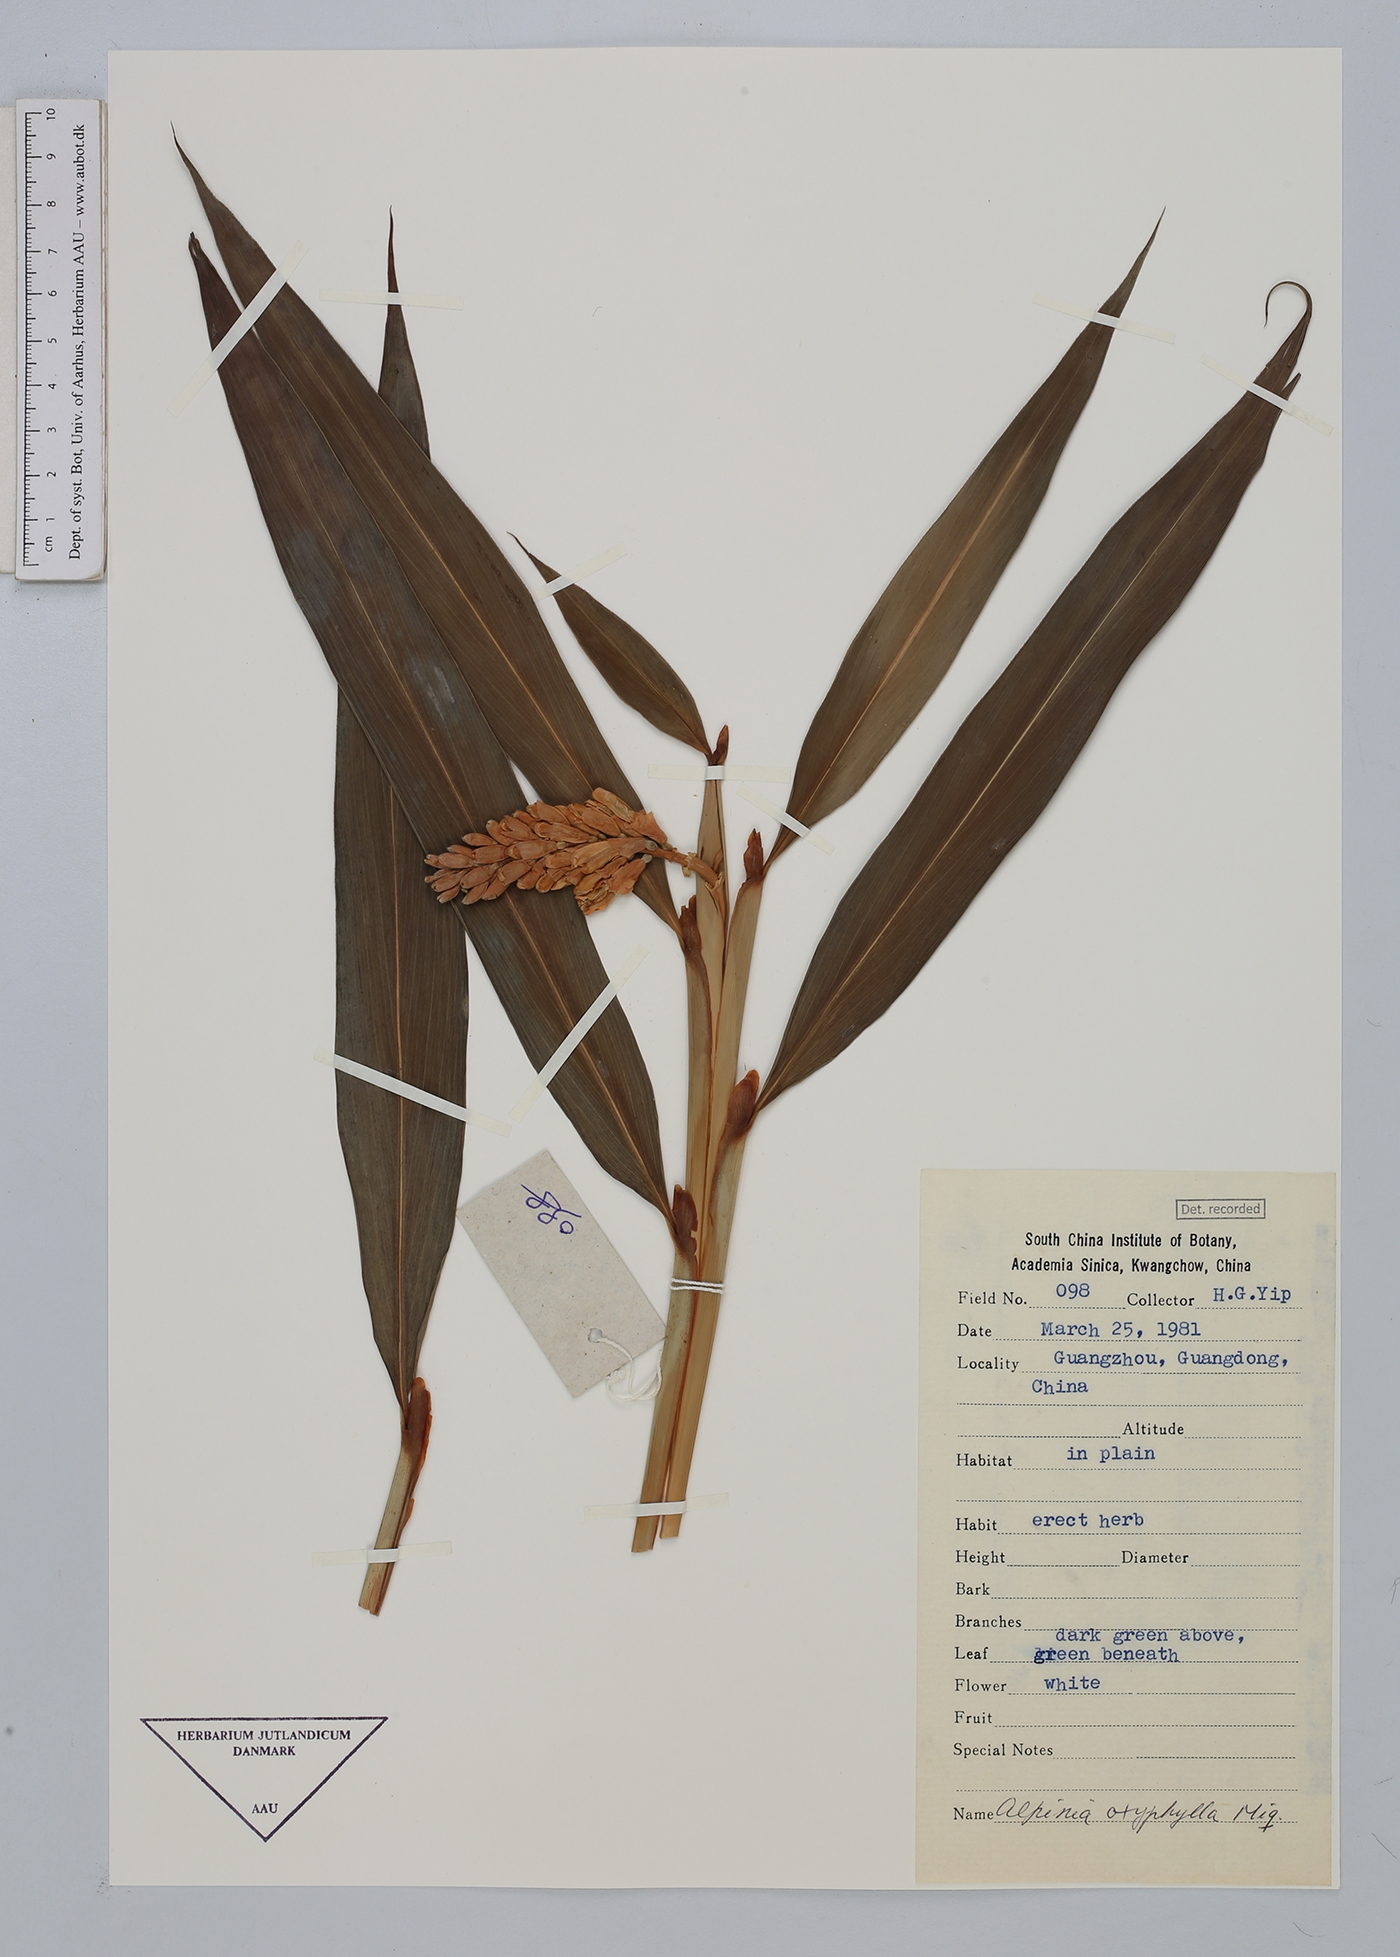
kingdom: Plantae
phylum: Tracheophyta
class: Liliopsida
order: Zingiberales
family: Zingiberaceae
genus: Alpinia
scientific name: Alpinia oxyphylla
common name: Sharp-leaf galangal
